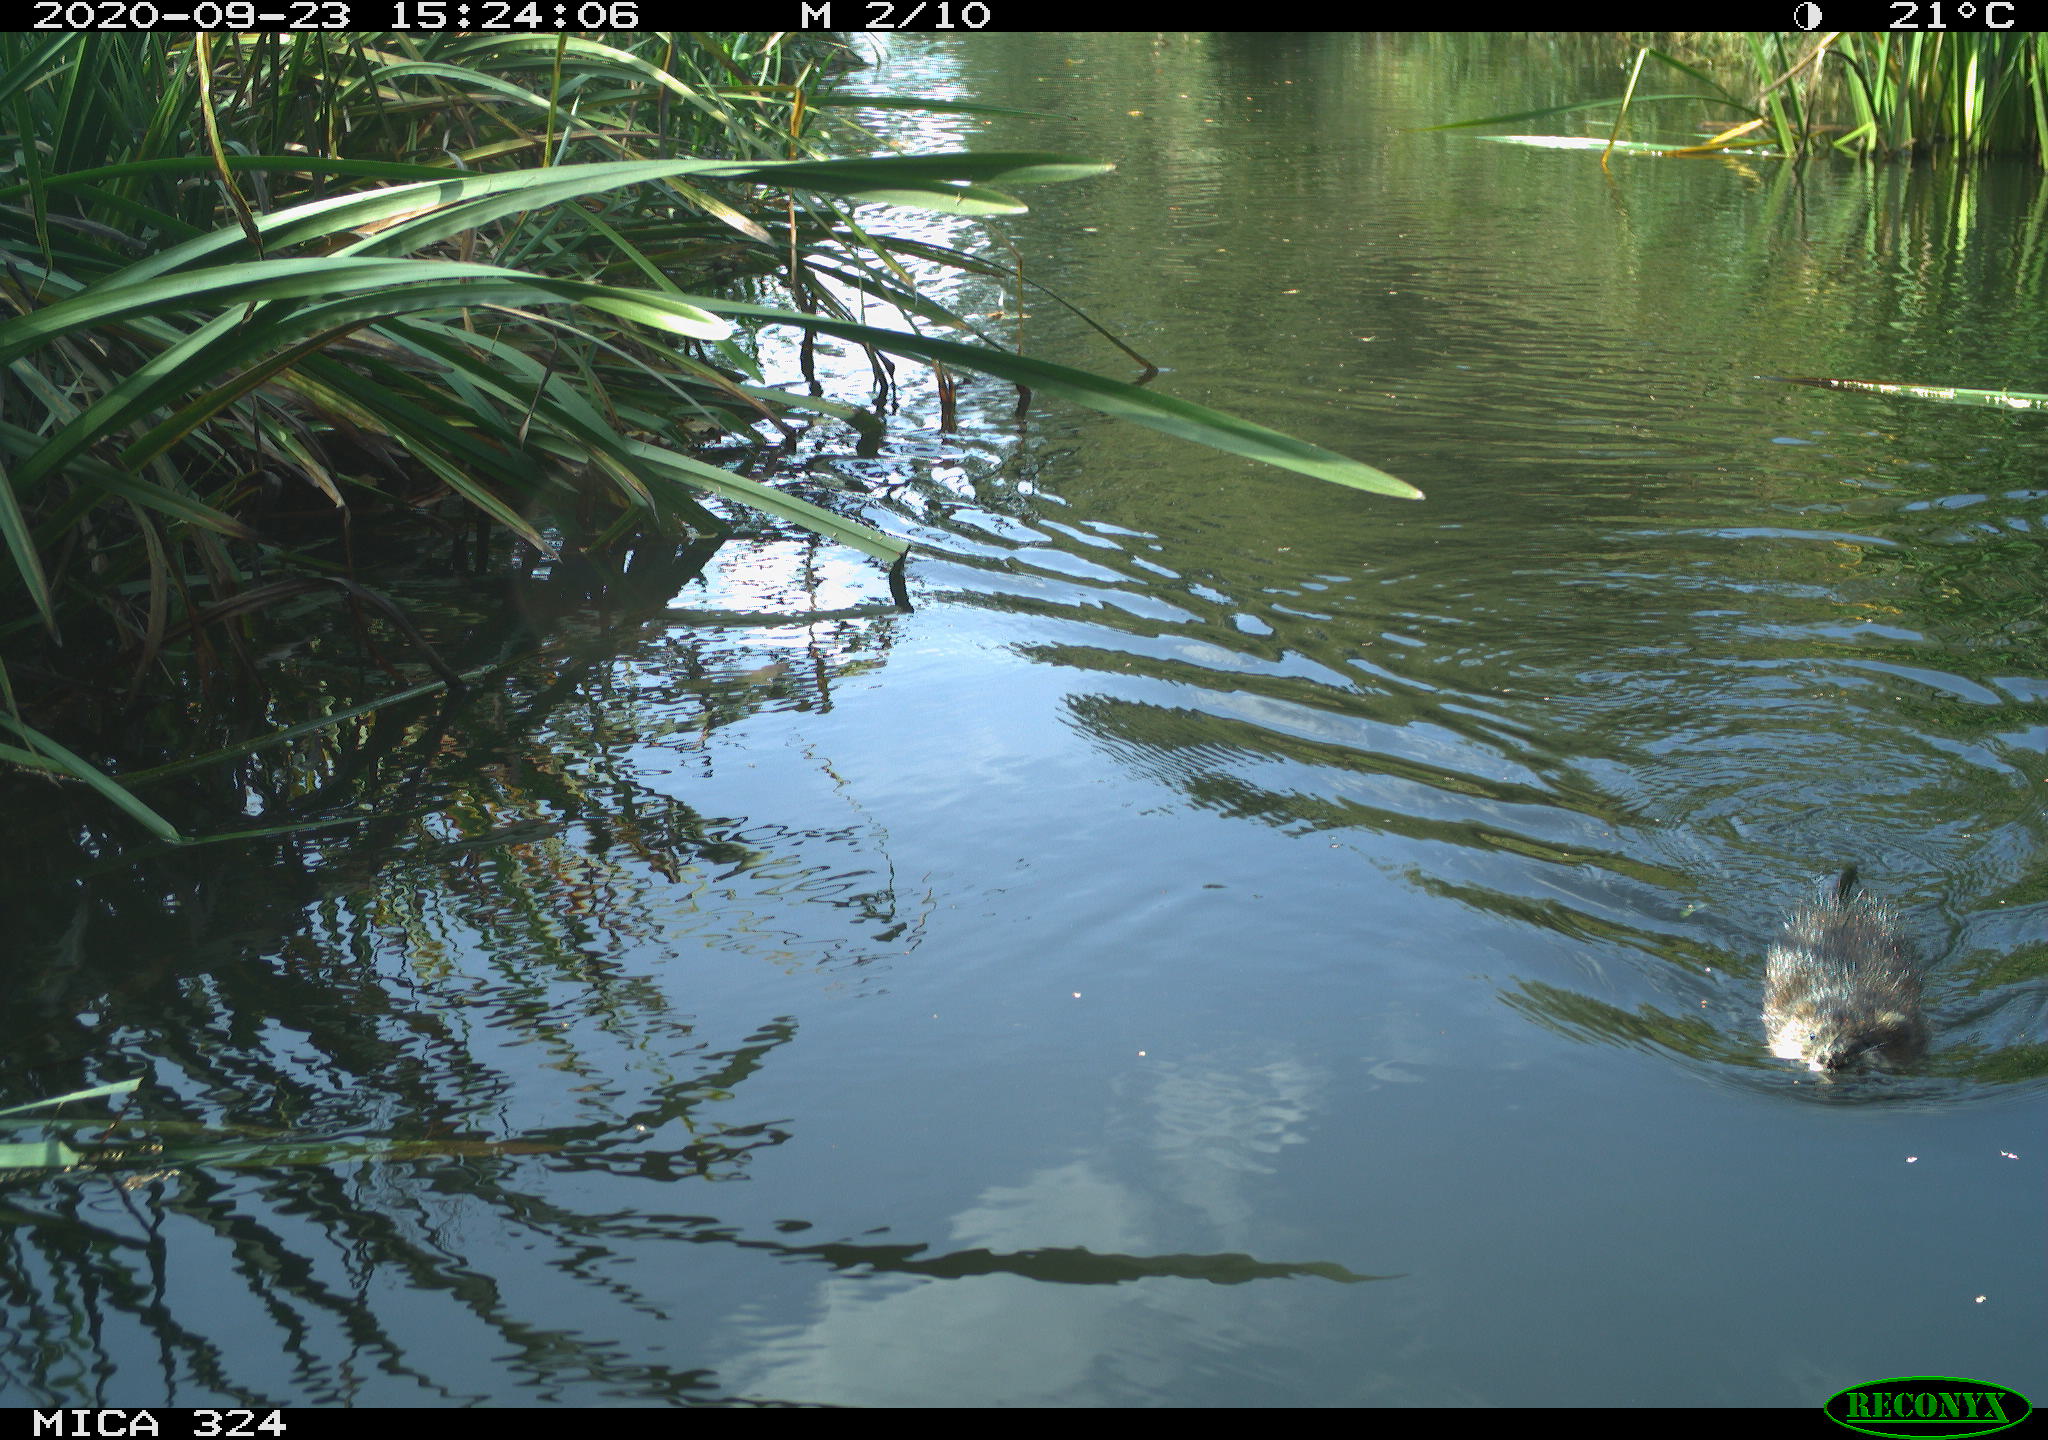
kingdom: Animalia
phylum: Chordata
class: Mammalia
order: Rodentia
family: Cricetidae
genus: Ondatra
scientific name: Ondatra zibethicus
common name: Muskrat
